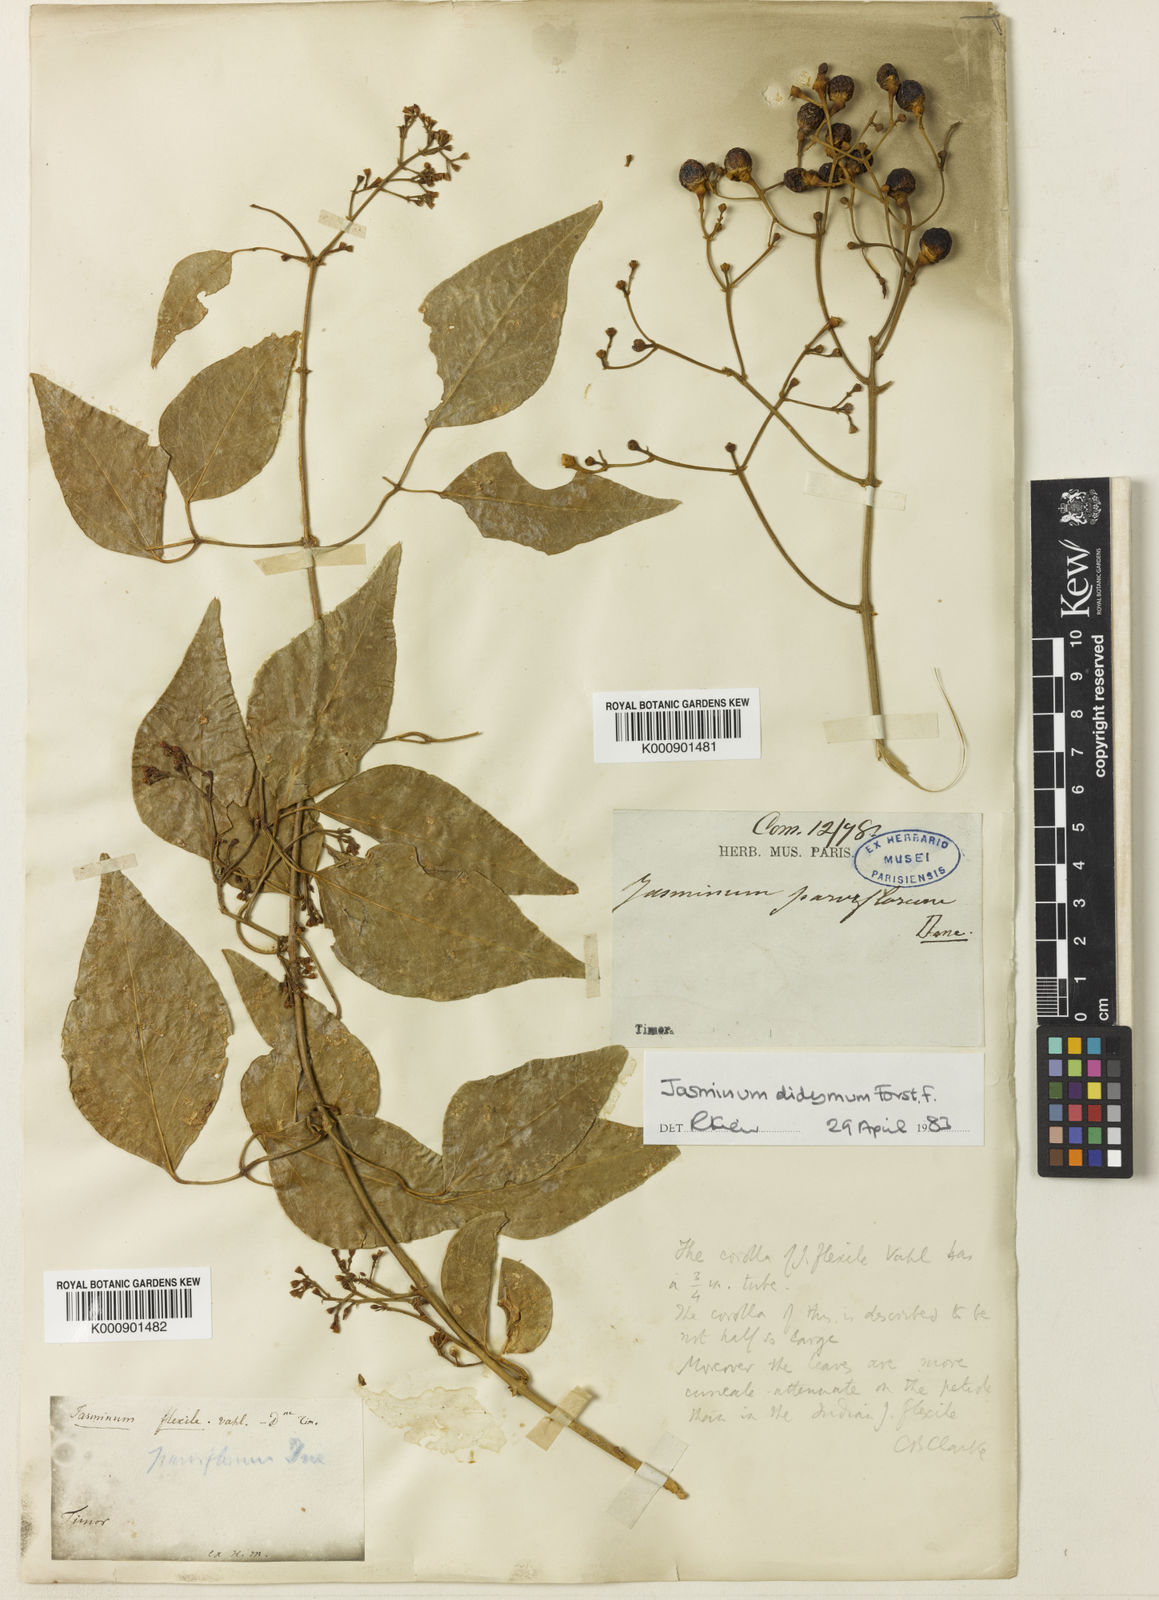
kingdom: Plantae
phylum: Tracheophyta
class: Magnoliopsida
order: Lamiales
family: Oleaceae
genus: Jasminum
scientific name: Jasminum didymum
